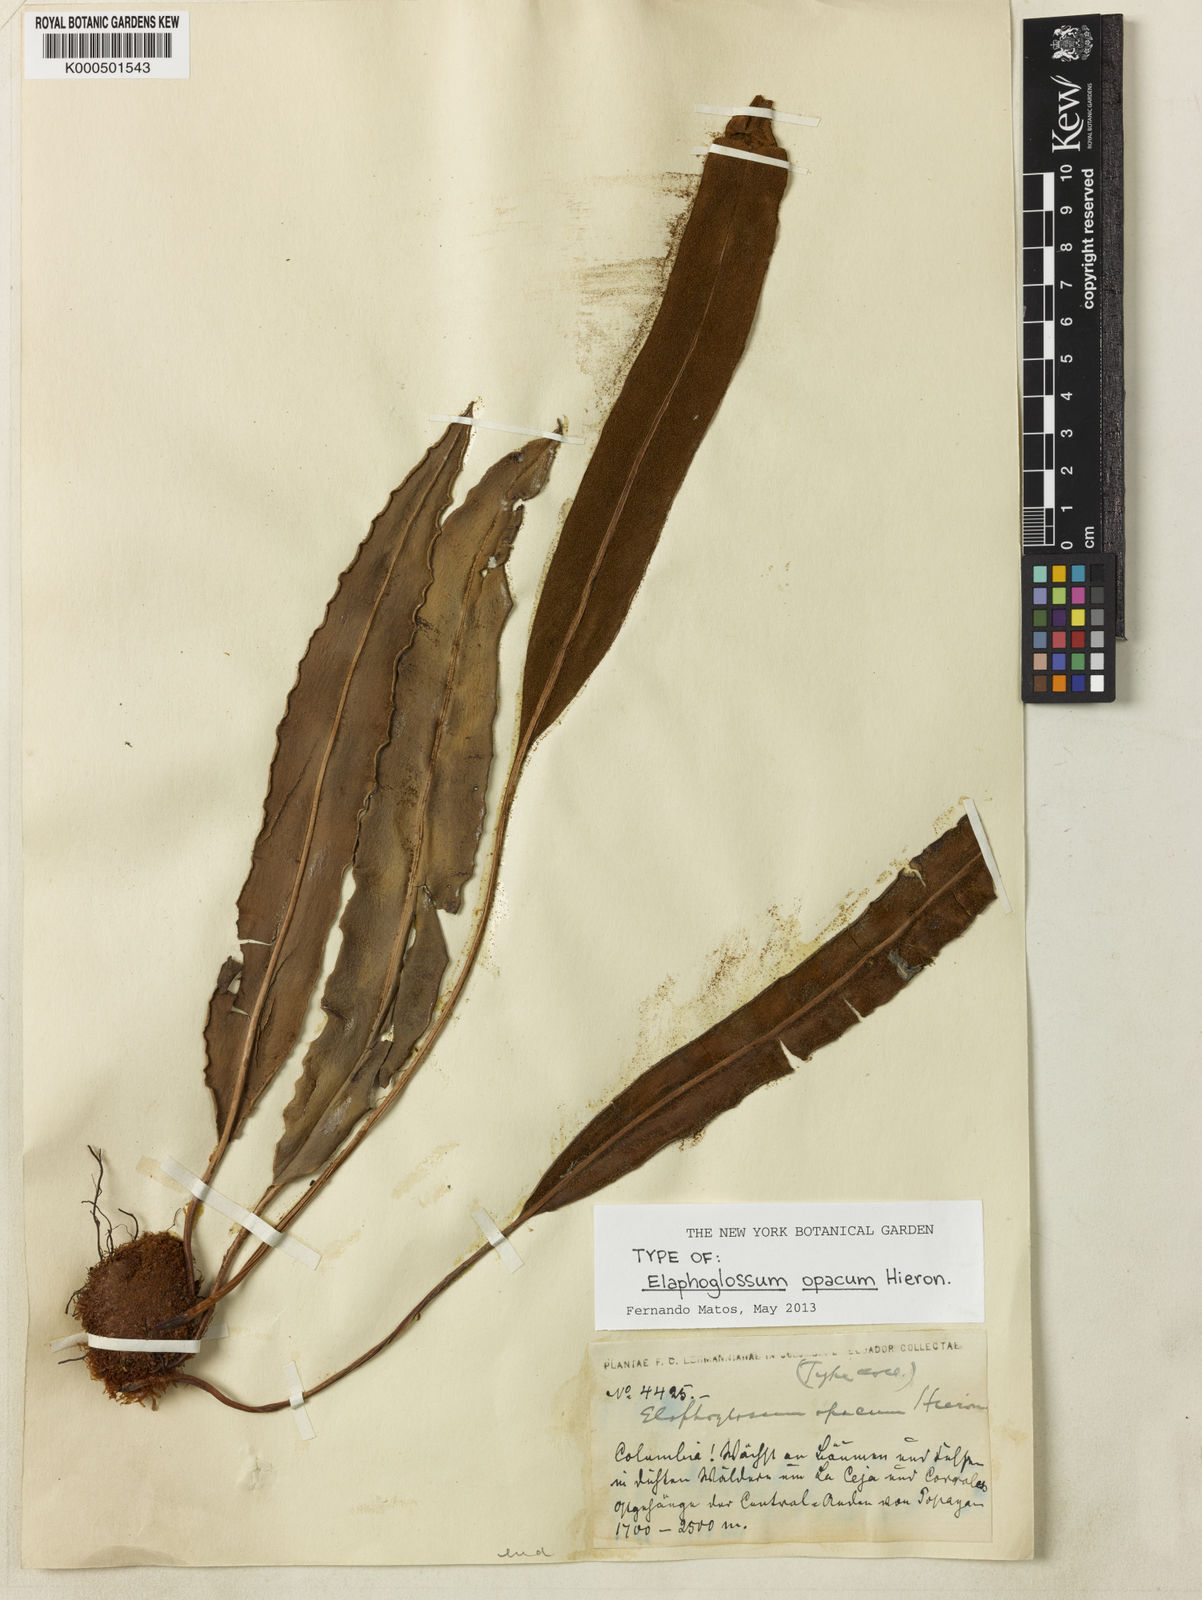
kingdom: Plantae
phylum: Tracheophyta
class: Polypodiopsida
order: Polypodiales
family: Dryopteridaceae
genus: Elaphoglossum
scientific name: Elaphoglossum opacum
